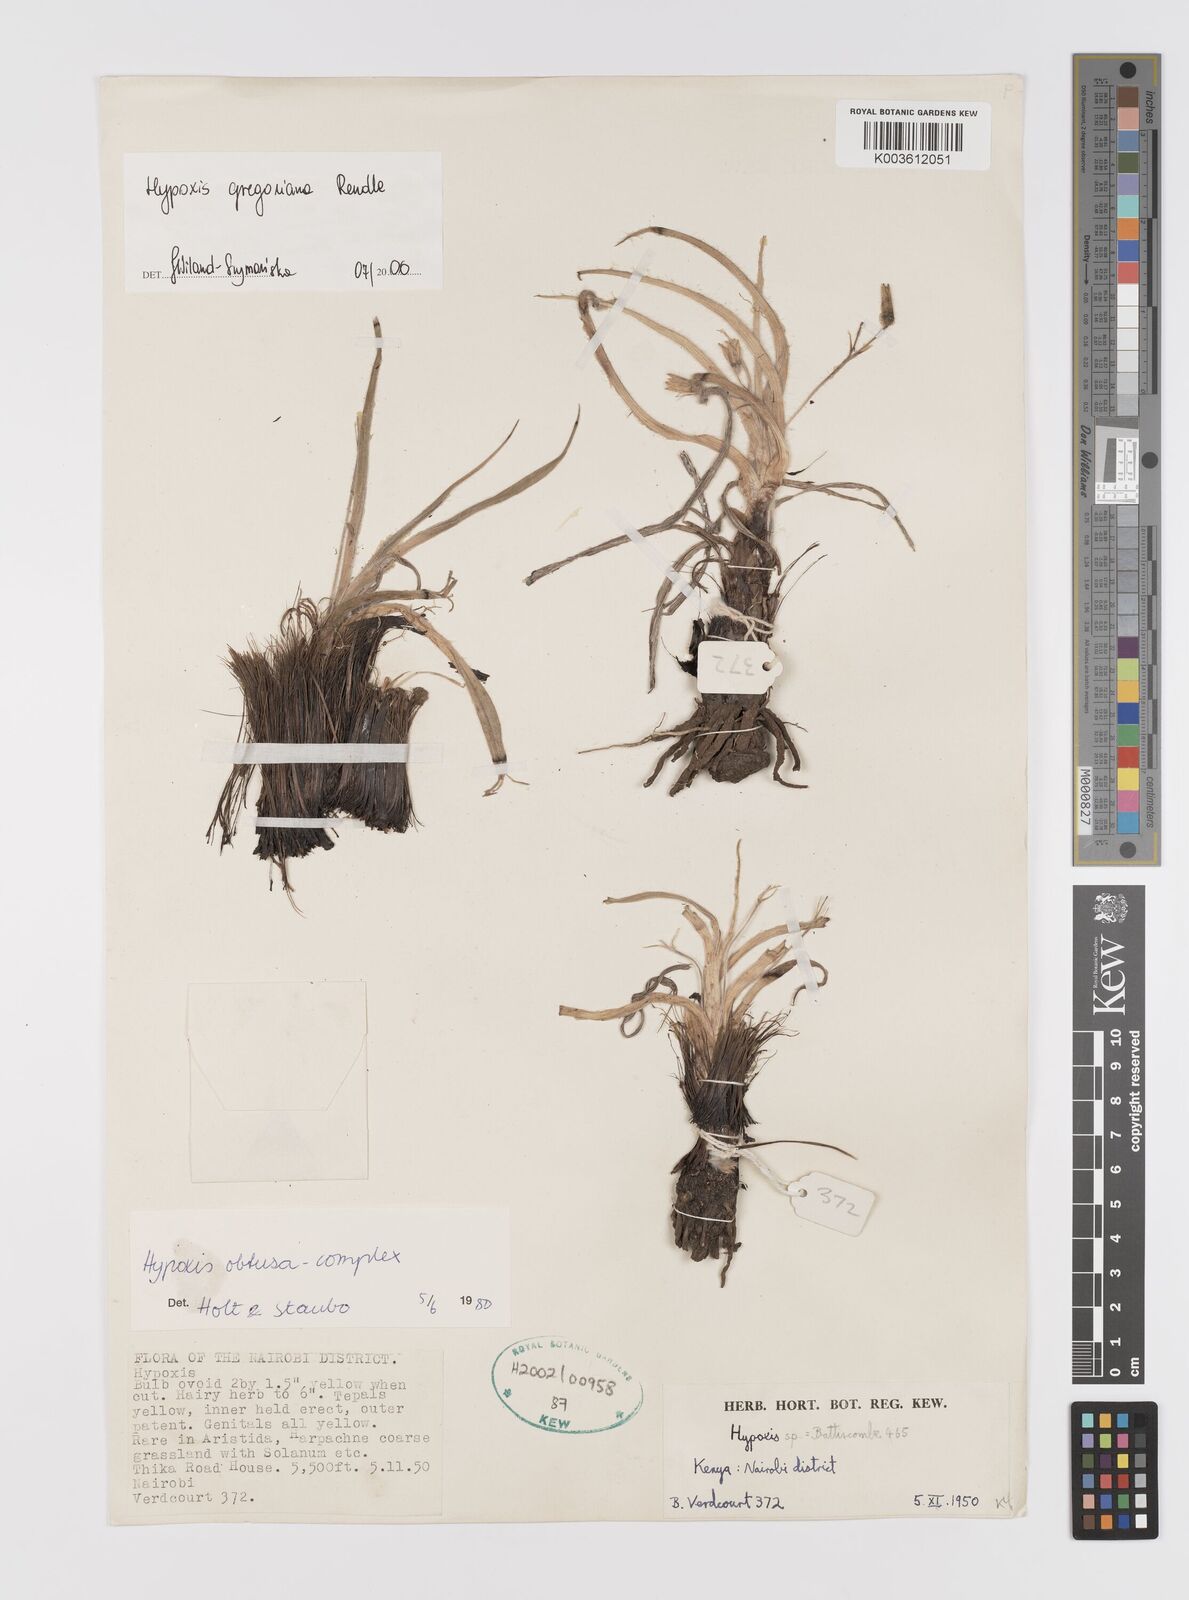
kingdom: Plantae
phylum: Tracheophyta
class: Liliopsida
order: Asparagales
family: Hypoxidaceae
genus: Hypoxis
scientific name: Hypoxis gregoriana
